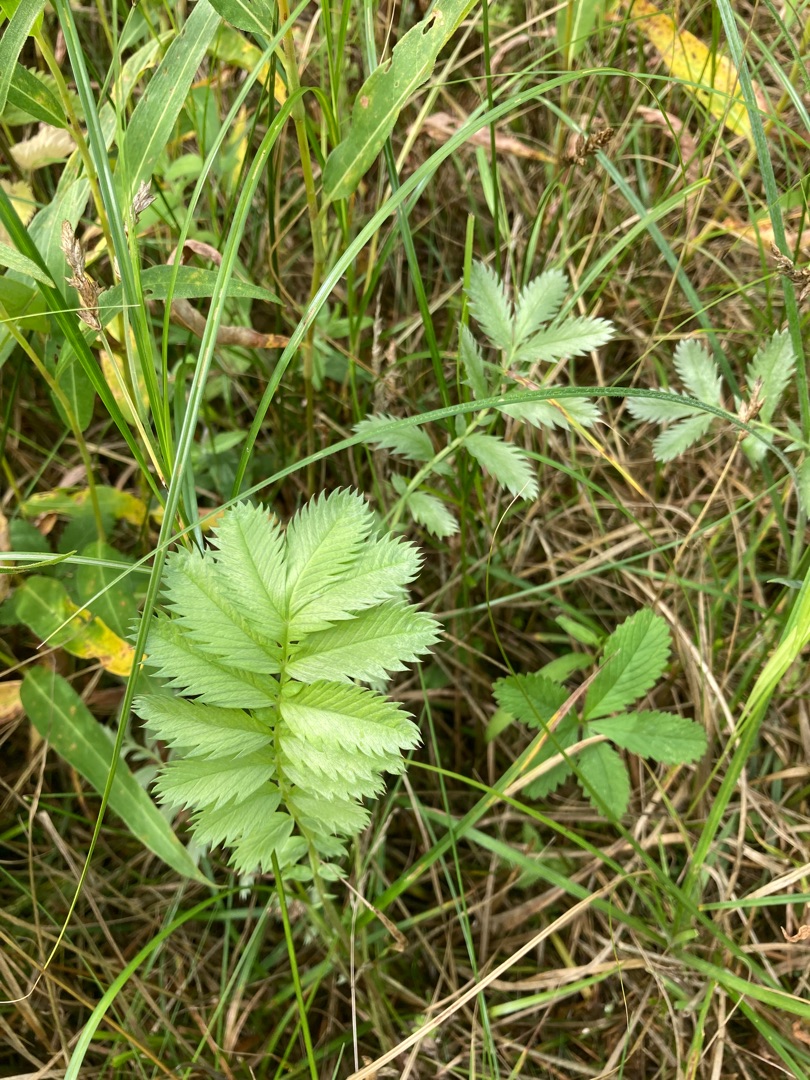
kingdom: Plantae
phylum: Tracheophyta
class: Magnoliopsida
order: Rosales
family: Rosaceae
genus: Argentina
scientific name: Argentina anserina
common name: Gåsepotentil
